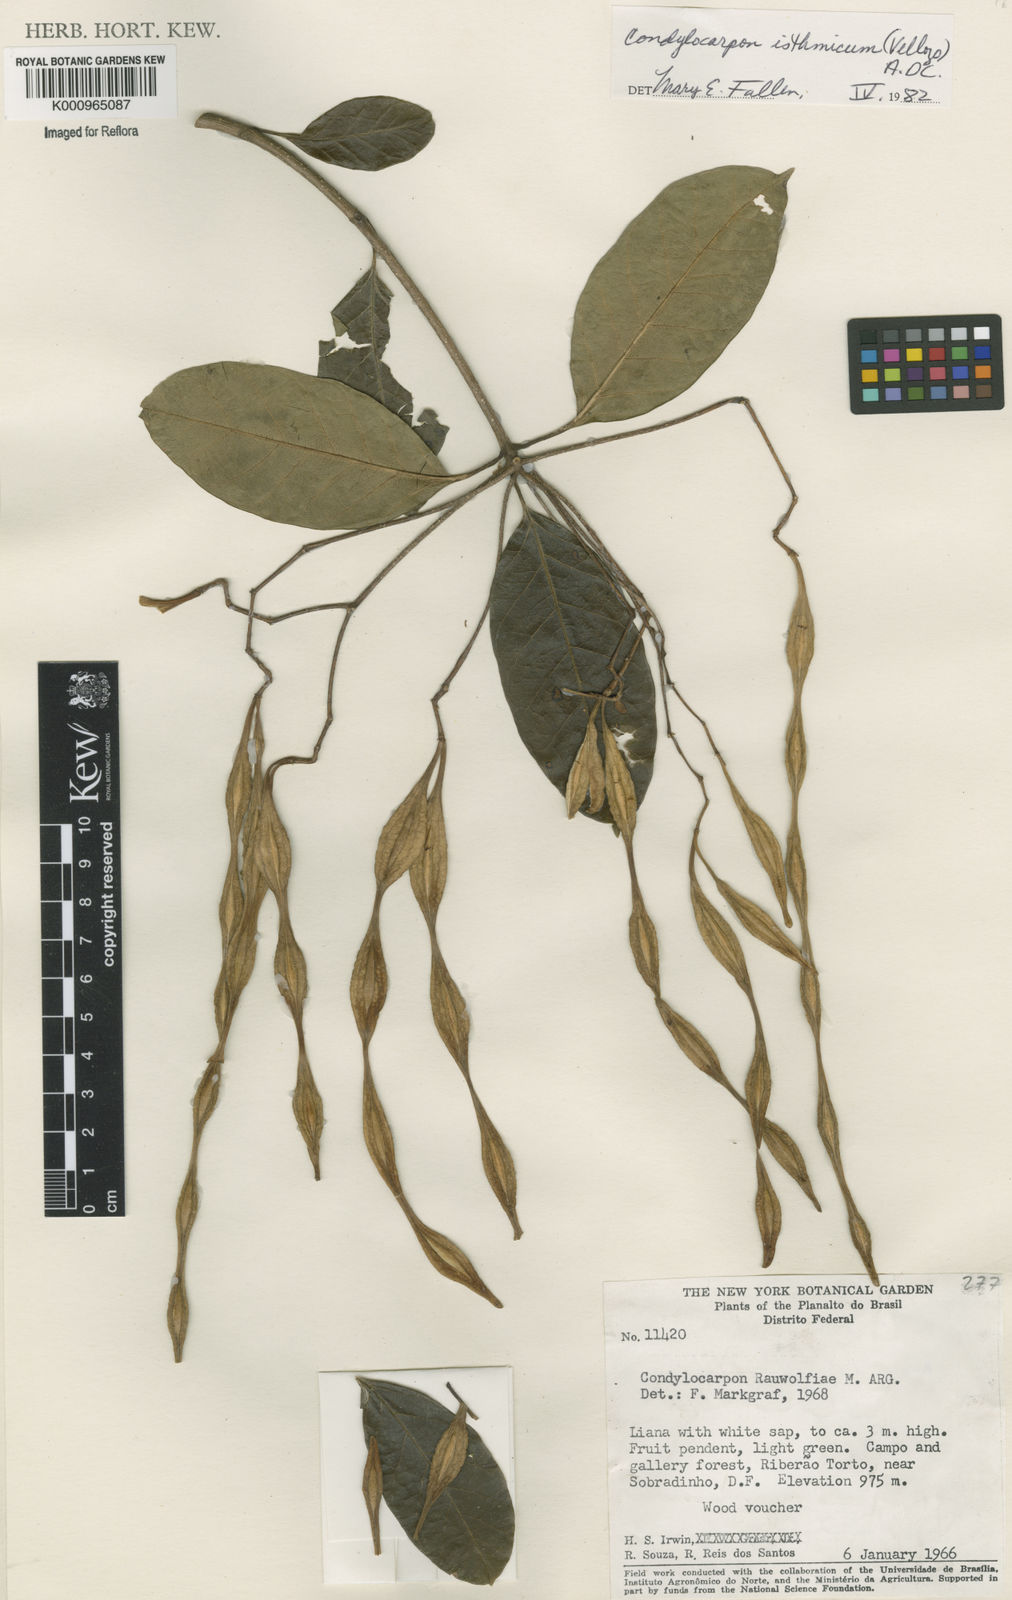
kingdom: Plantae
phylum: Tracheophyta
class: Magnoliopsida
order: Gentianales
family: Apocynaceae
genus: Condylocarpon
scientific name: Condylocarpon isthmicum
